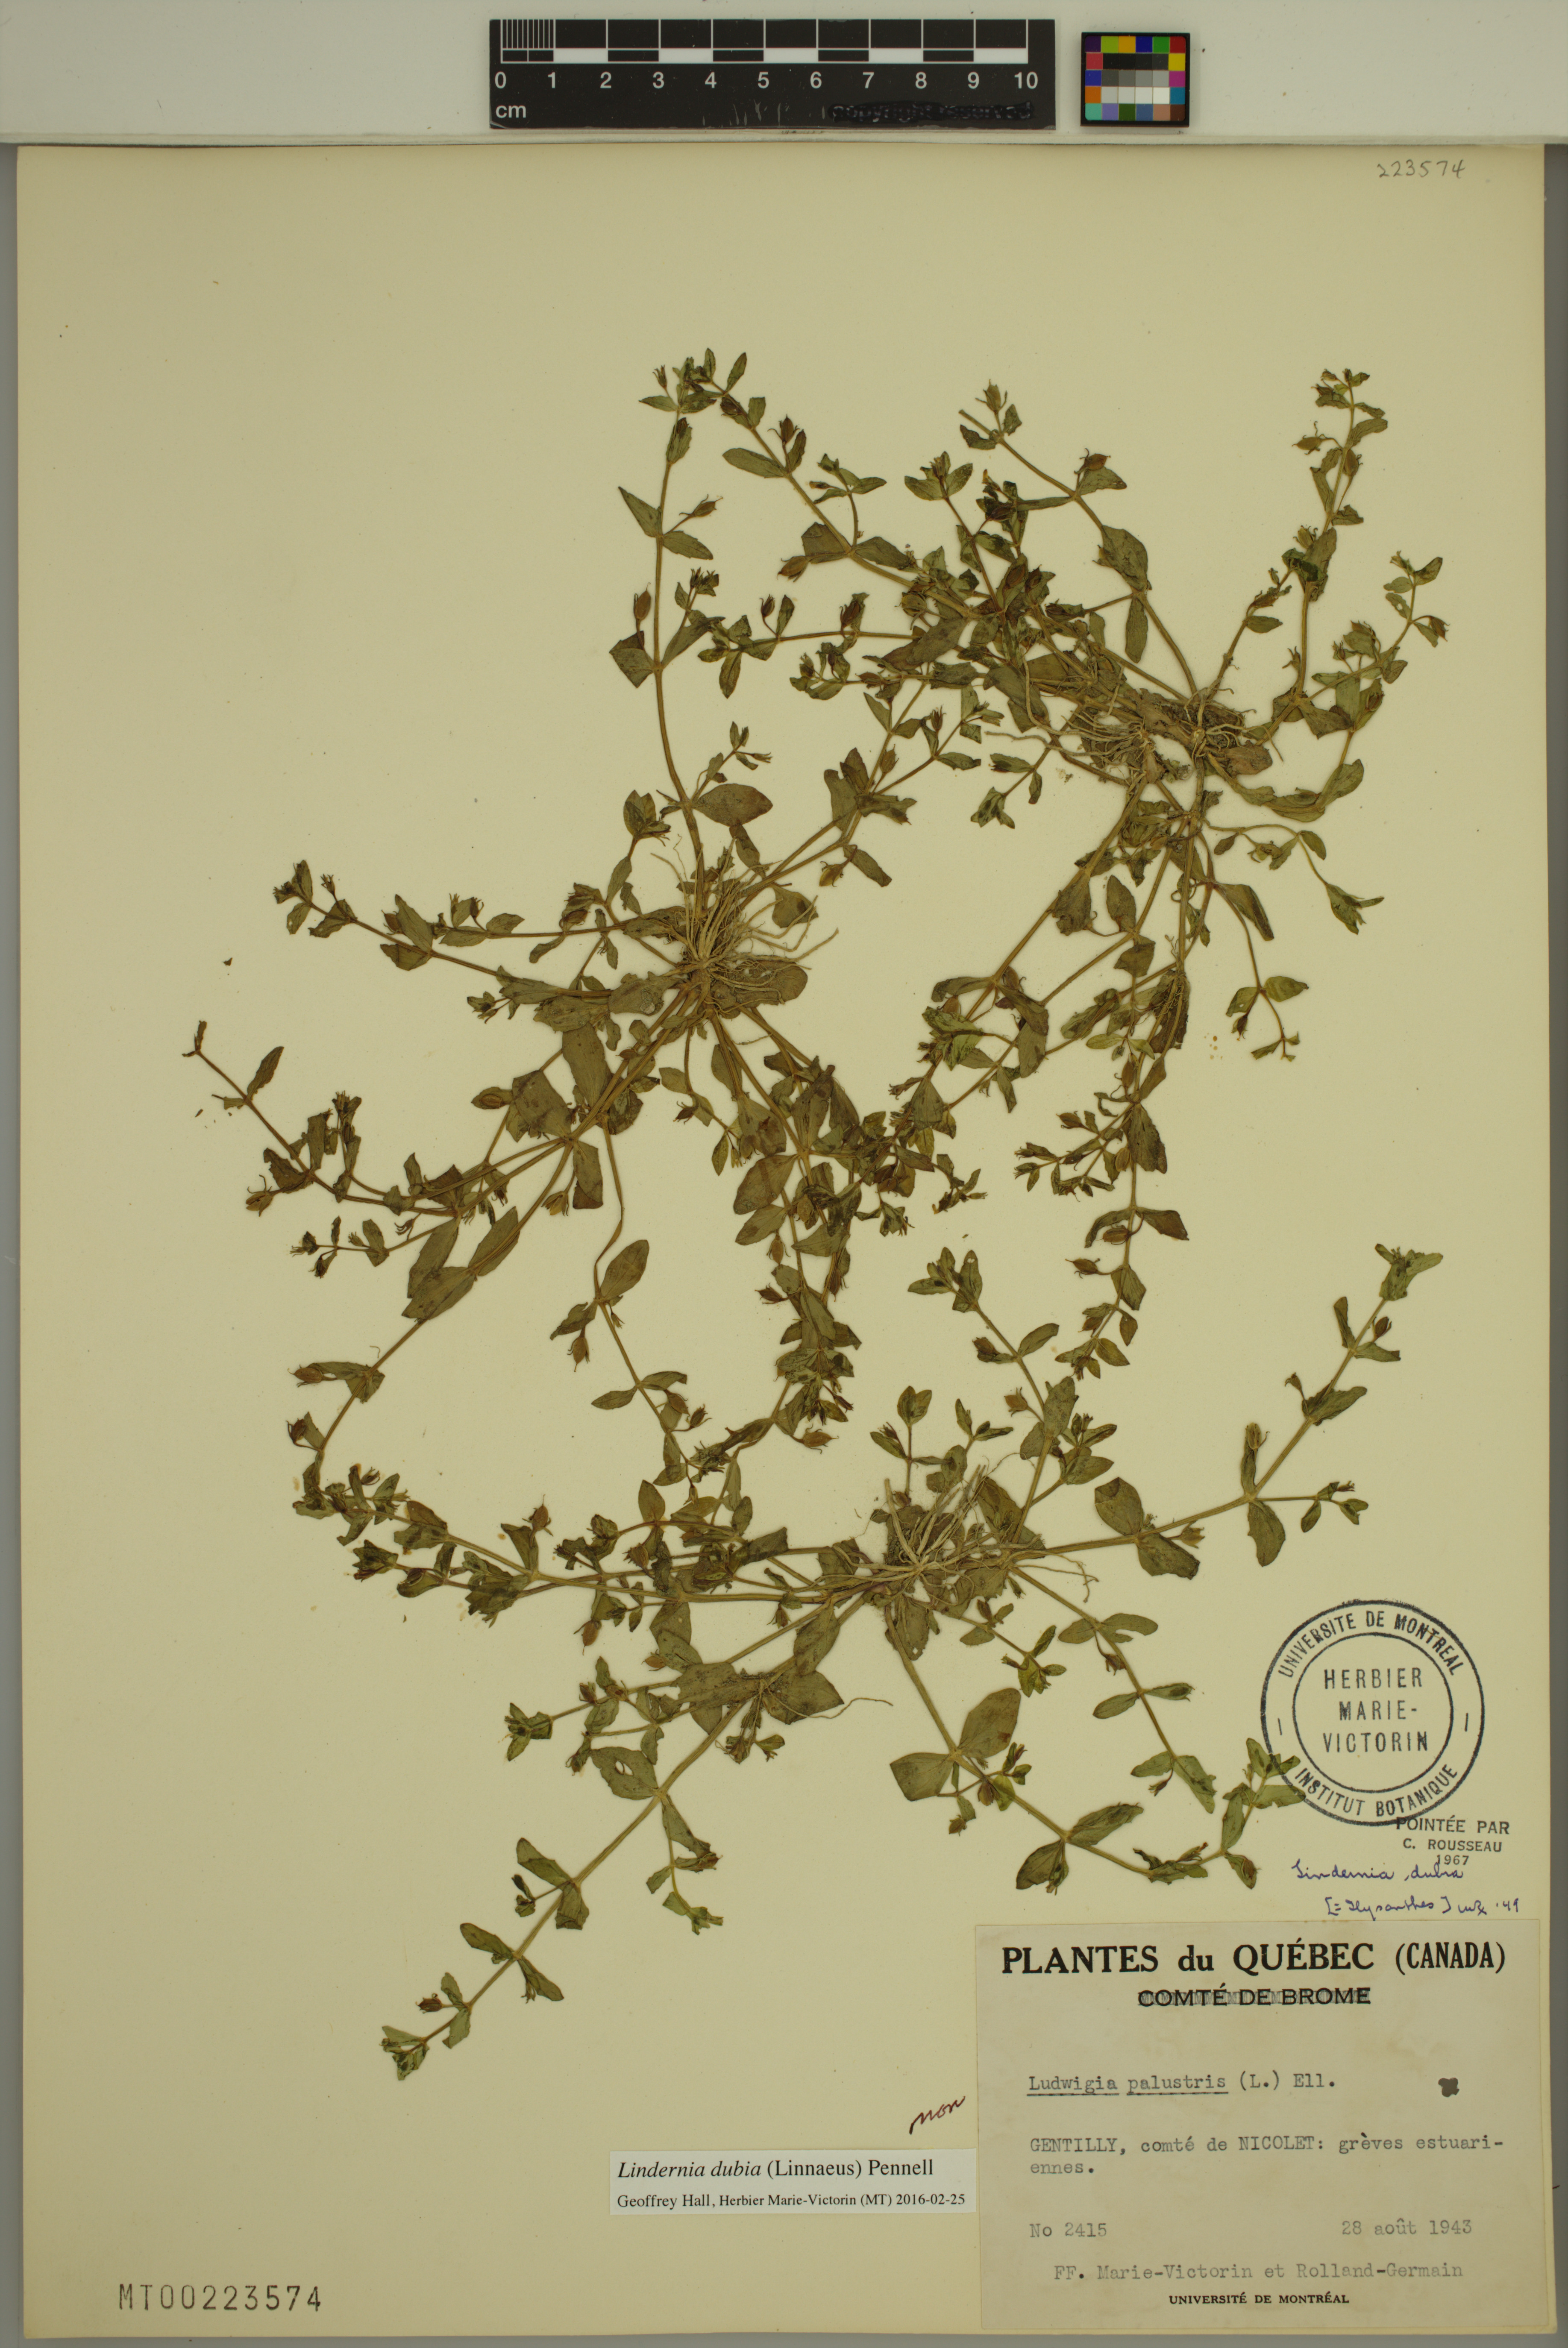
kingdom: Plantae
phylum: Tracheophyta
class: Magnoliopsida
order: Lamiales
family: Linderniaceae
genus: Lindernia
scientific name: Lindernia dubia
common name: Annual false pimpernel
